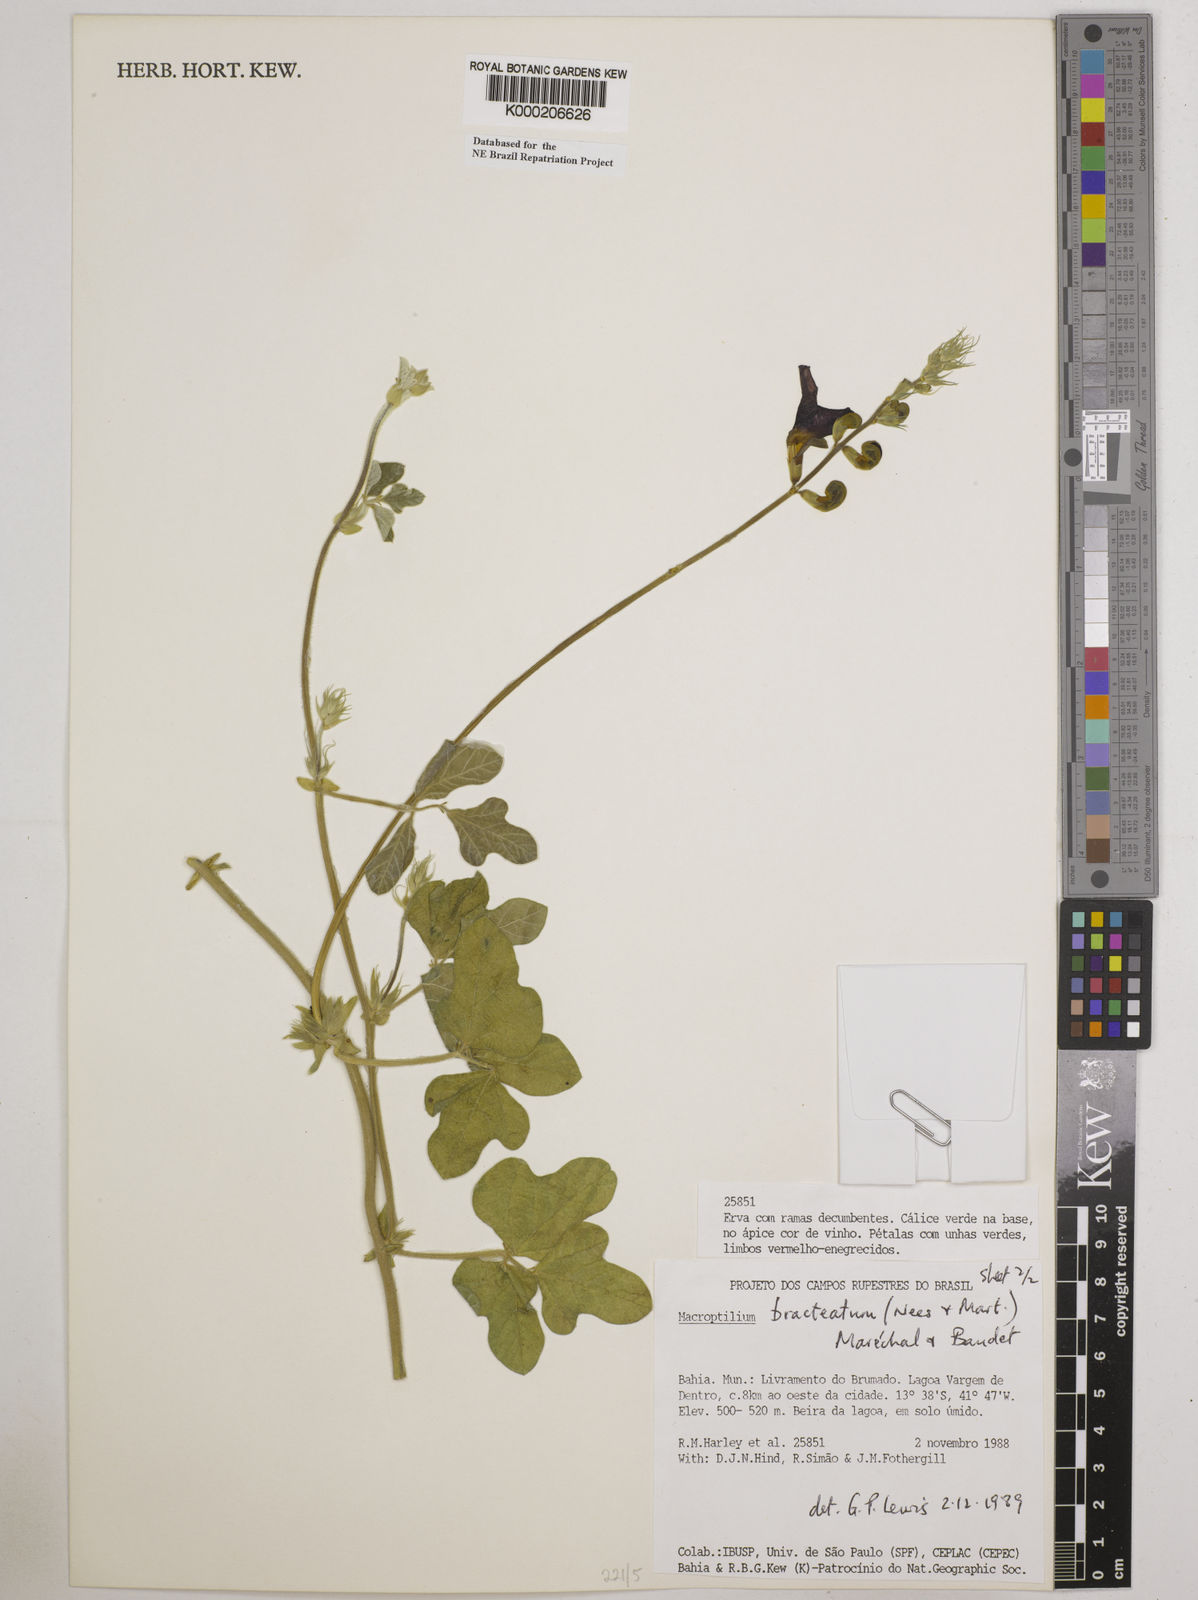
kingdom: Plantae
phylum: Tracheophyta
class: Magnoliopsida
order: Fabales
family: Fabaceae
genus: Macroptilium
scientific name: Macroptilium
